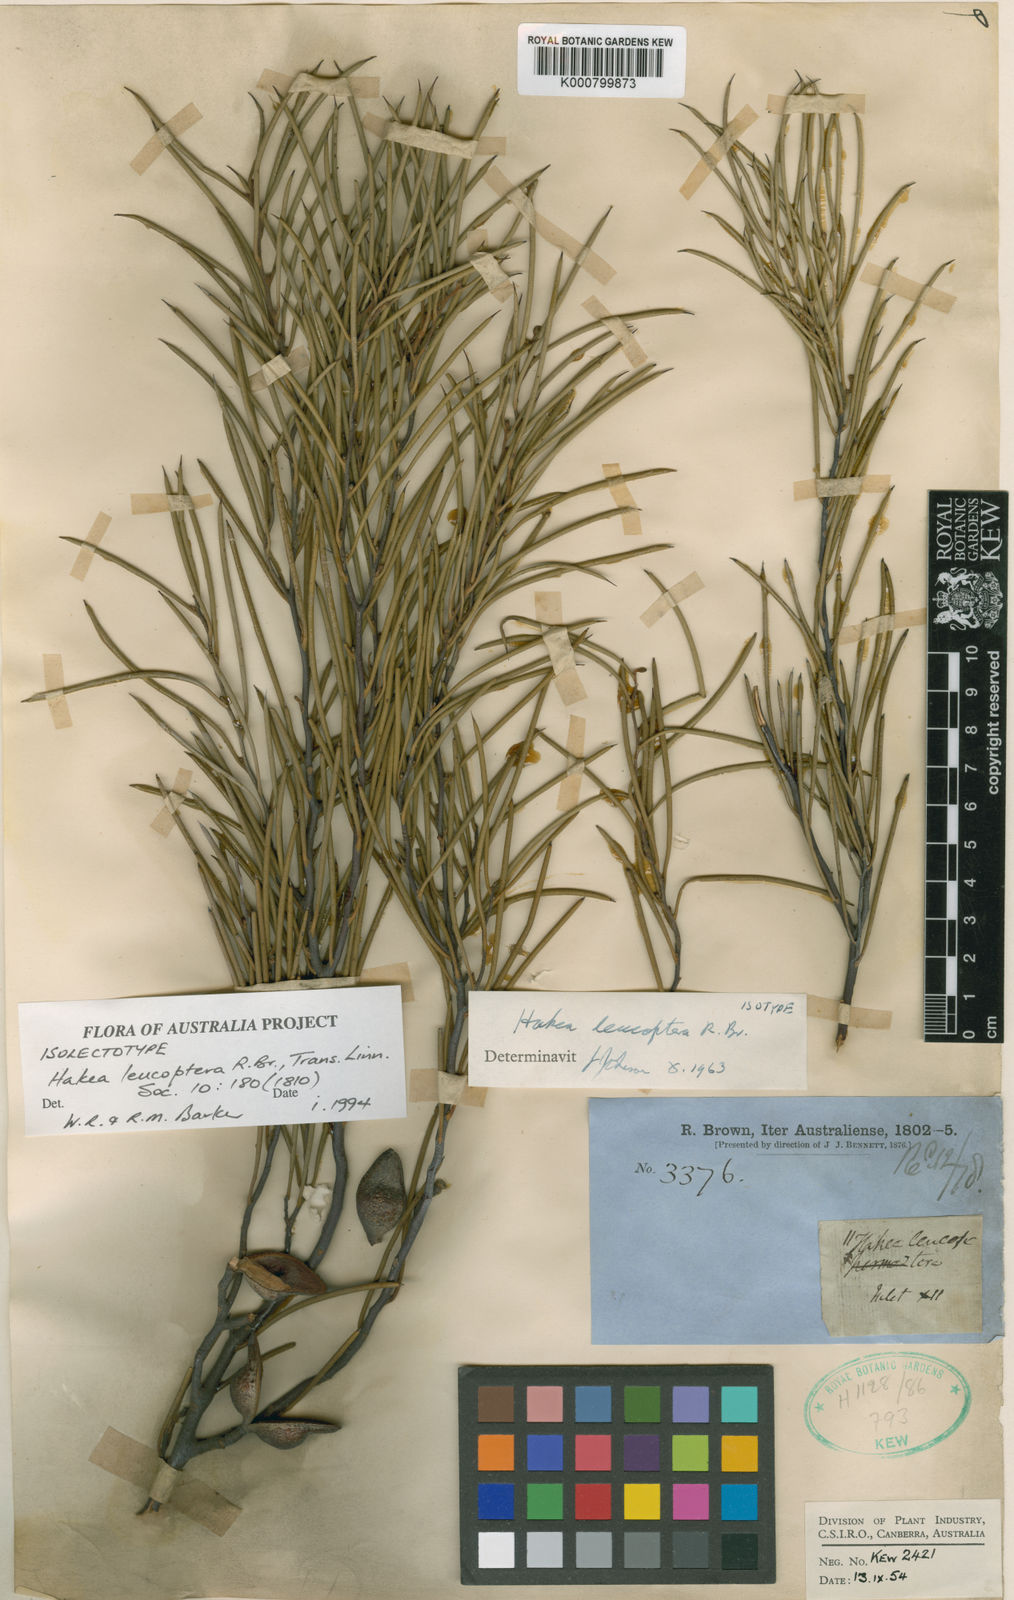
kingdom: Plantae
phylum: Tracheophyta
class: Magnoliopsida
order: Proteales
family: Proteaceae
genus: Hakea
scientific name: Hakea leucoptera
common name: Pinbush
